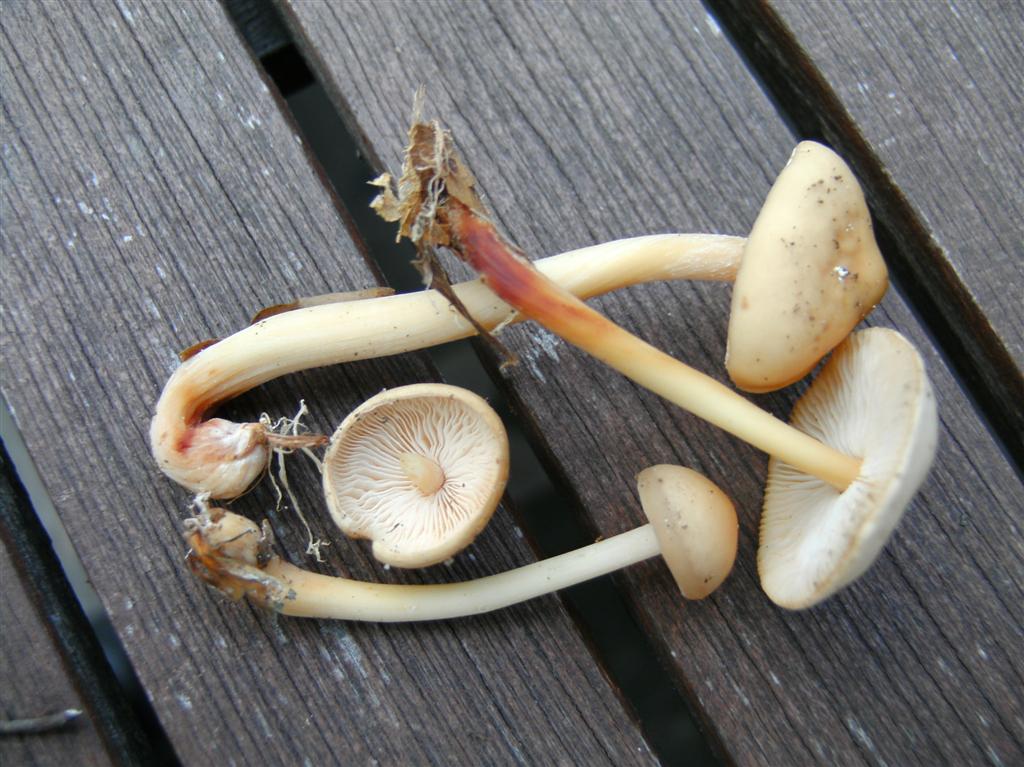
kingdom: Fungi
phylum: Basidiomycota
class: Agaricomycetes
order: Agaricales
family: Omphalotaceae
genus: Gymnopus
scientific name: Gymnopus dryophilus
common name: løv-fladhat
